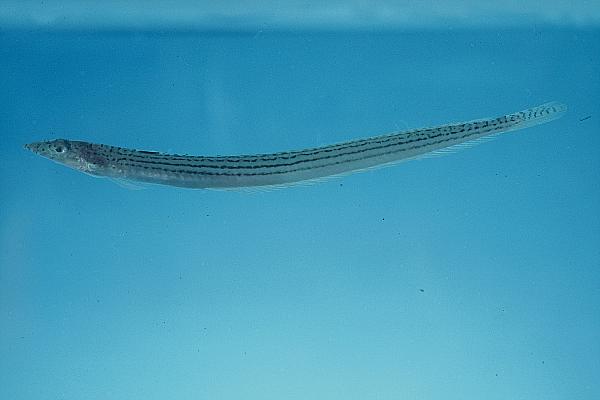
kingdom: Animalia
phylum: Chordata
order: Perciformes
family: Trichonotidae
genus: Trichonotus
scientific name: Trichonotus
